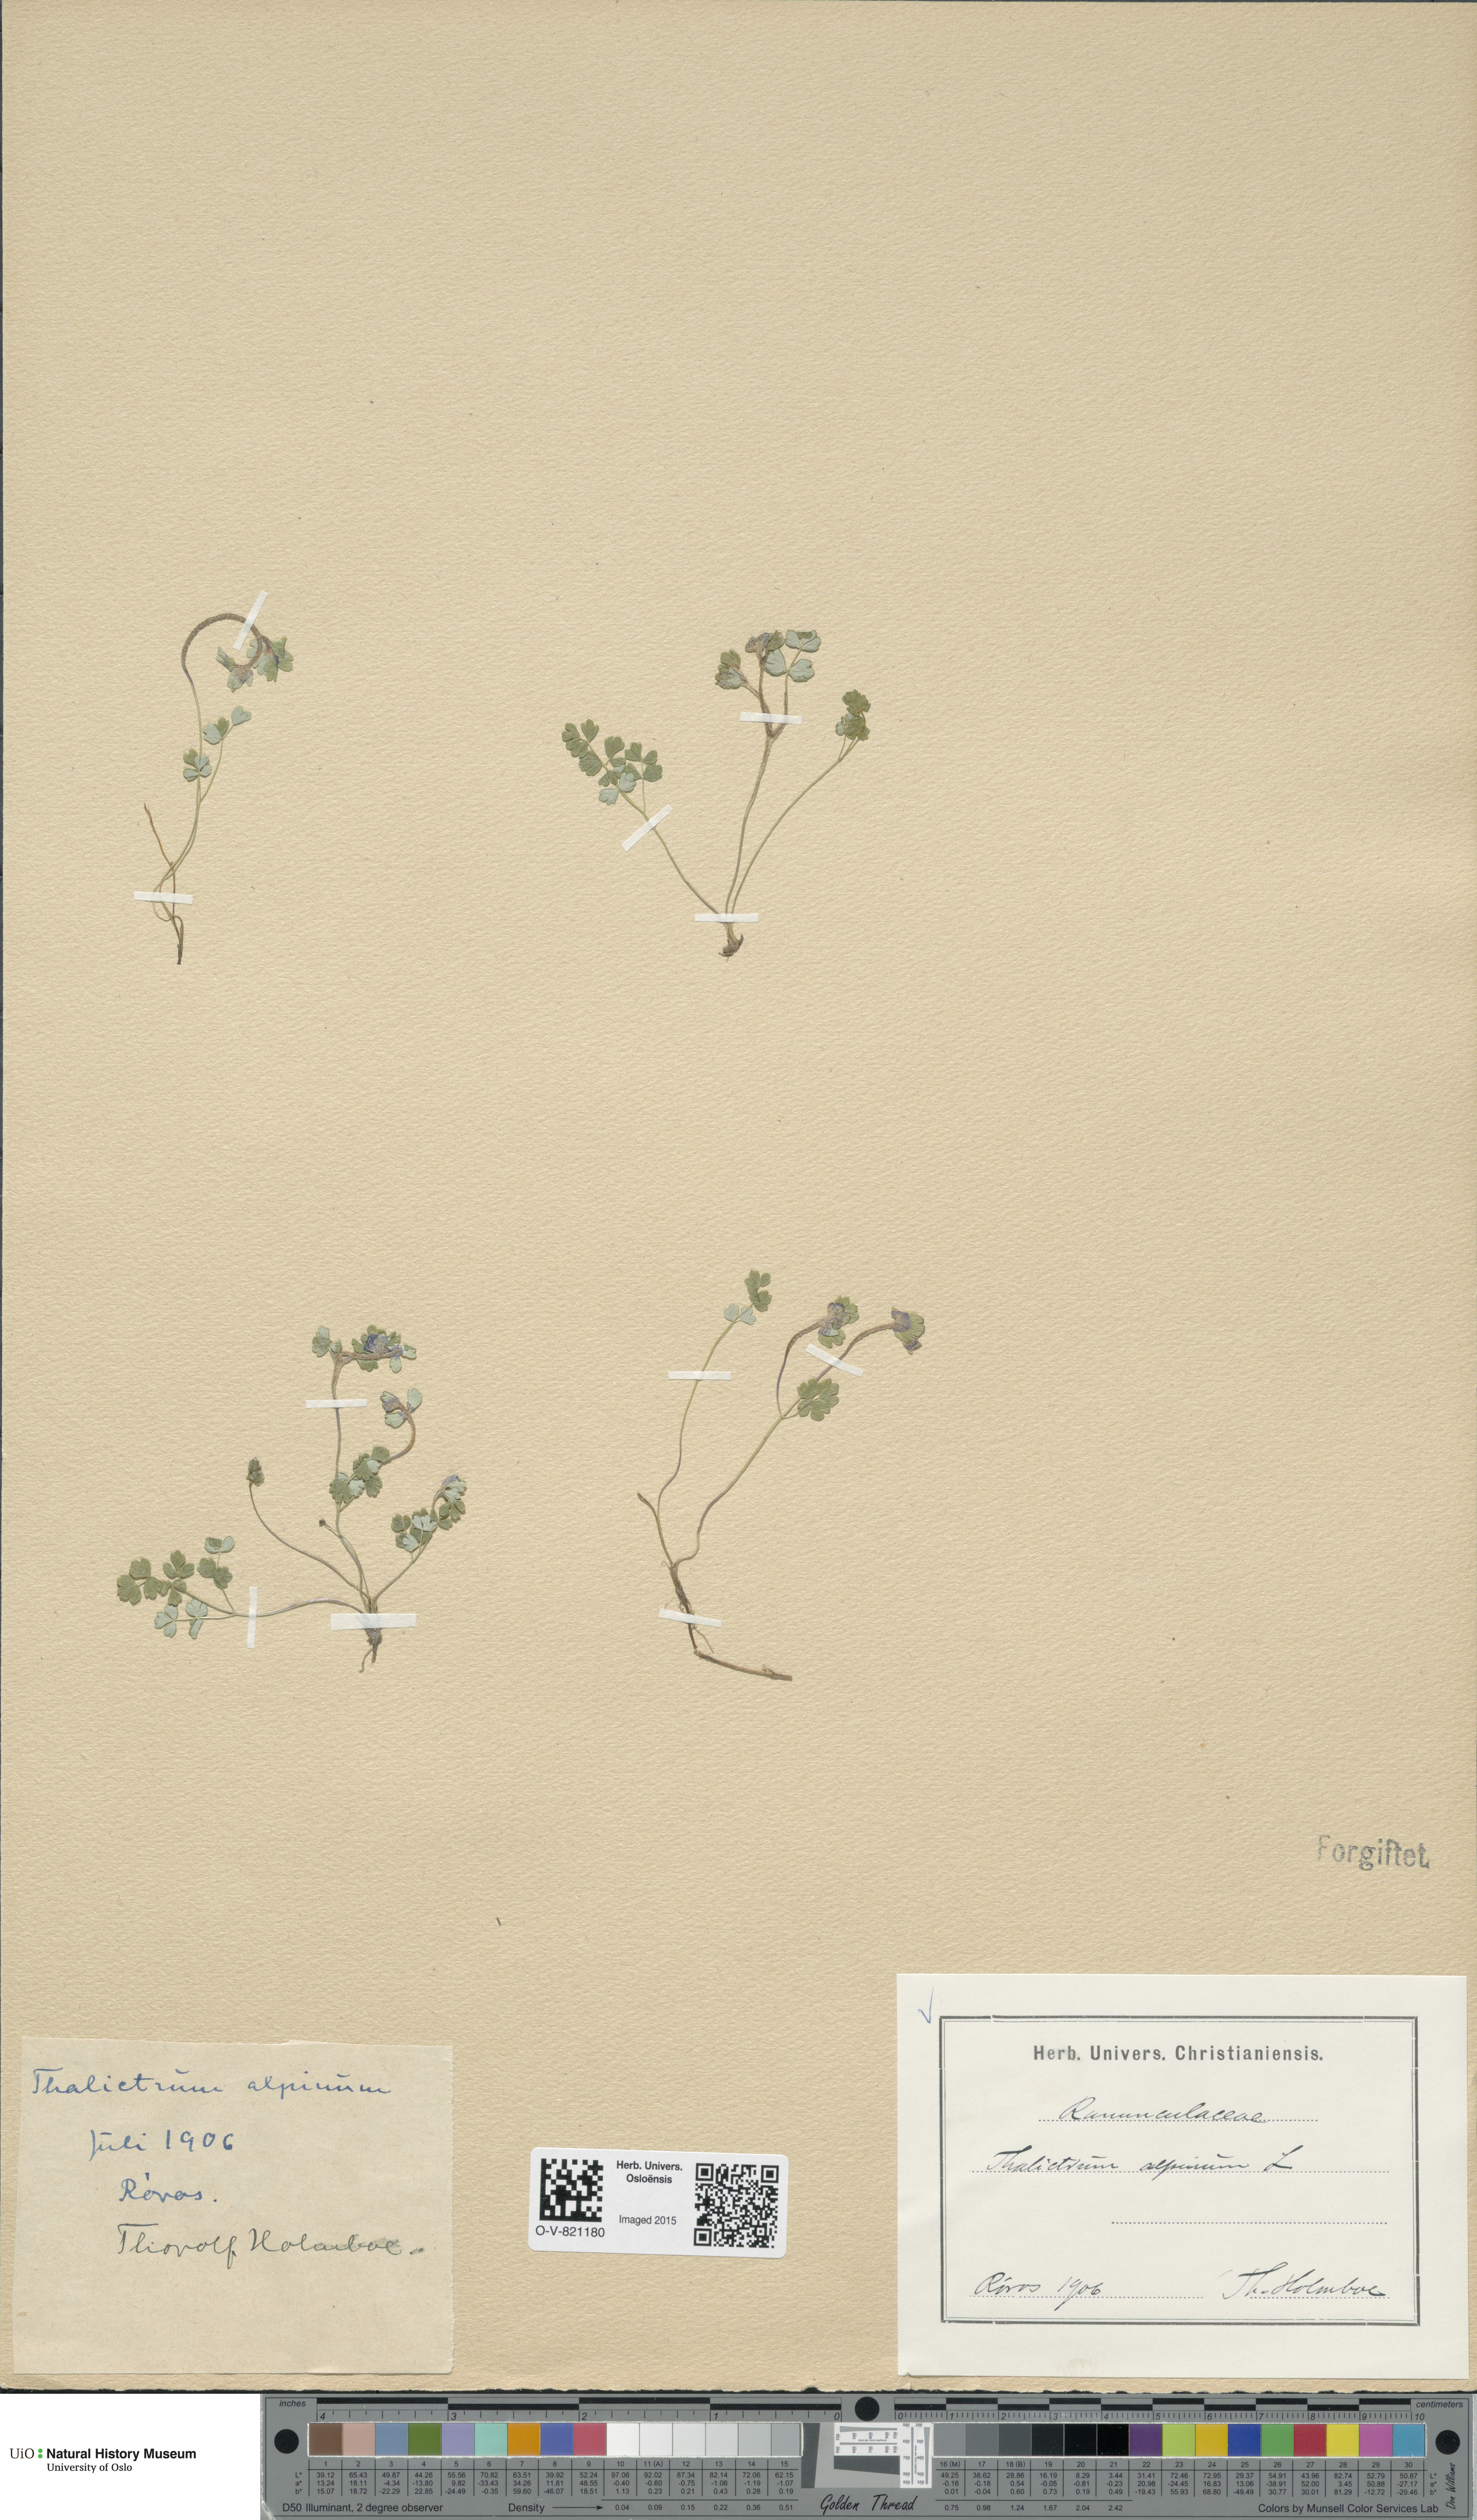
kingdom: Plantae
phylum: Tracheophyta
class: Magnoliopsida
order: Ranunculales
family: Ranunculaceae
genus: Thalictrum
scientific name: Thalictrum alpinum
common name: Alpine meadow-rue
